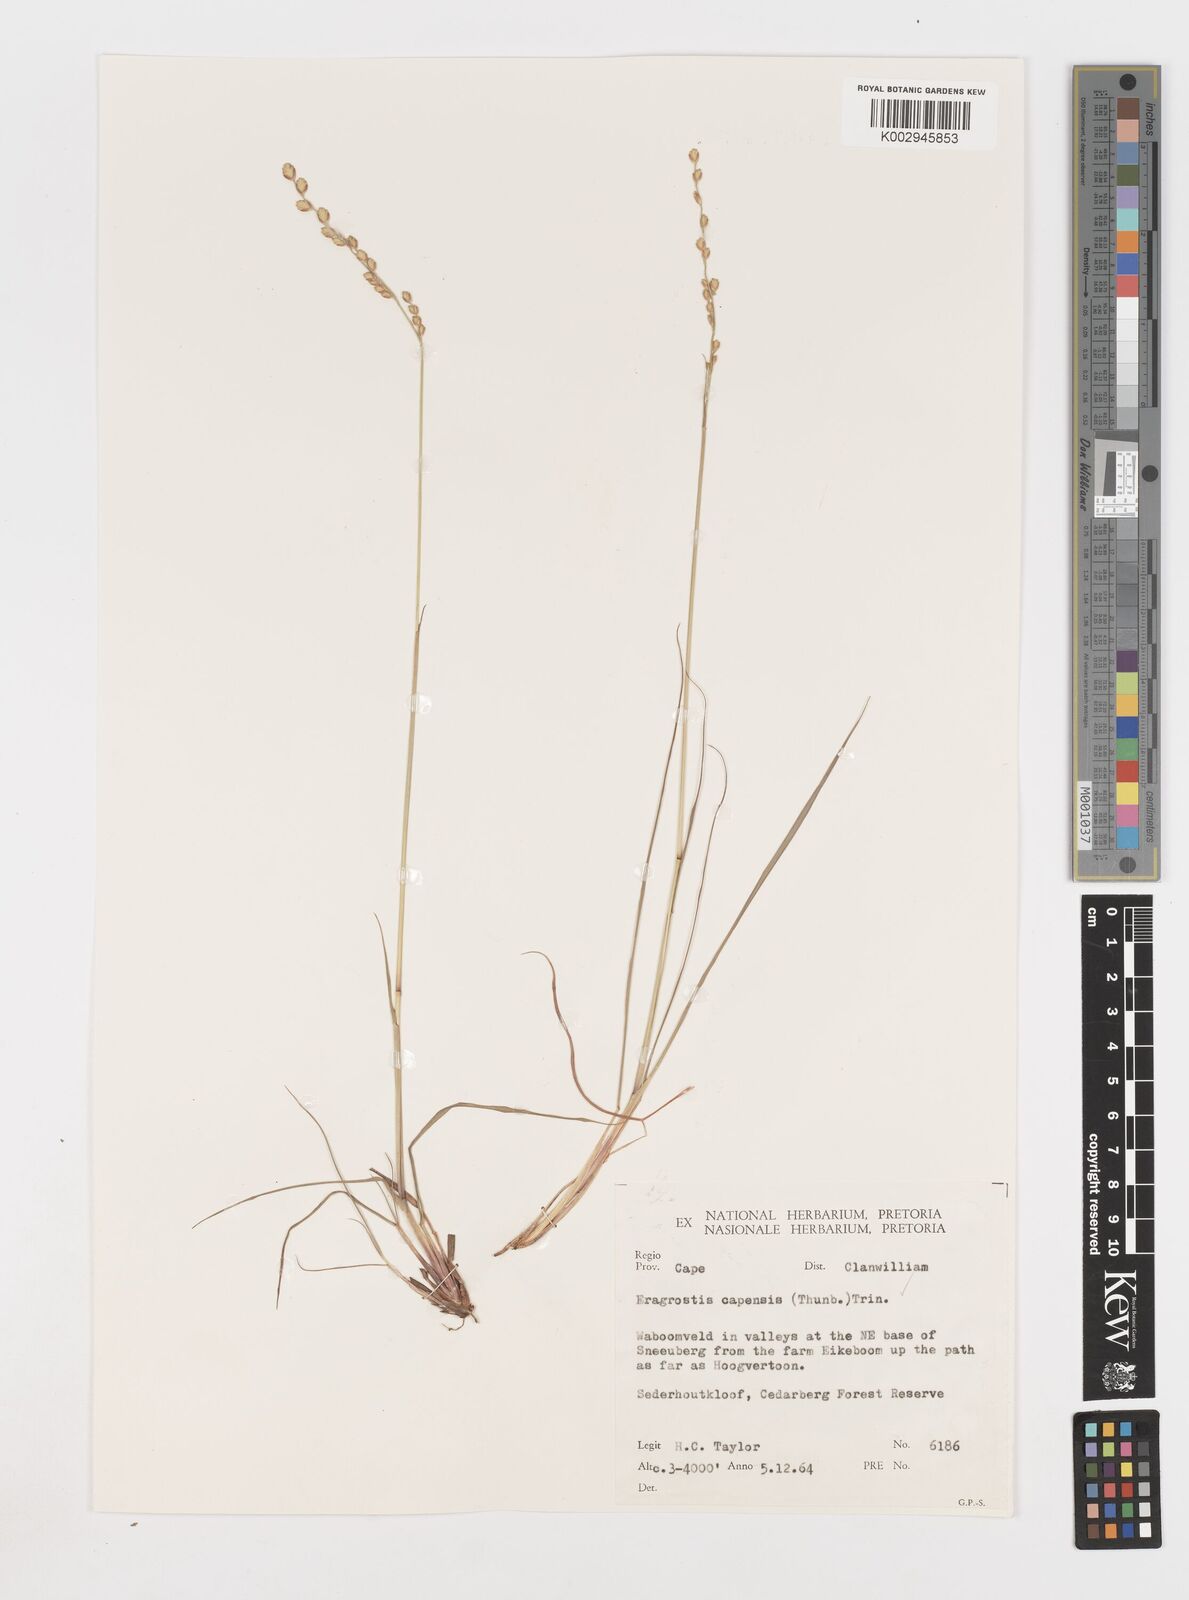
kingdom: Plantae
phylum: Tracheophyta
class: Liliopsida
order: Poales
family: Poaceae
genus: Eragrostis
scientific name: Eragrostis capensis
